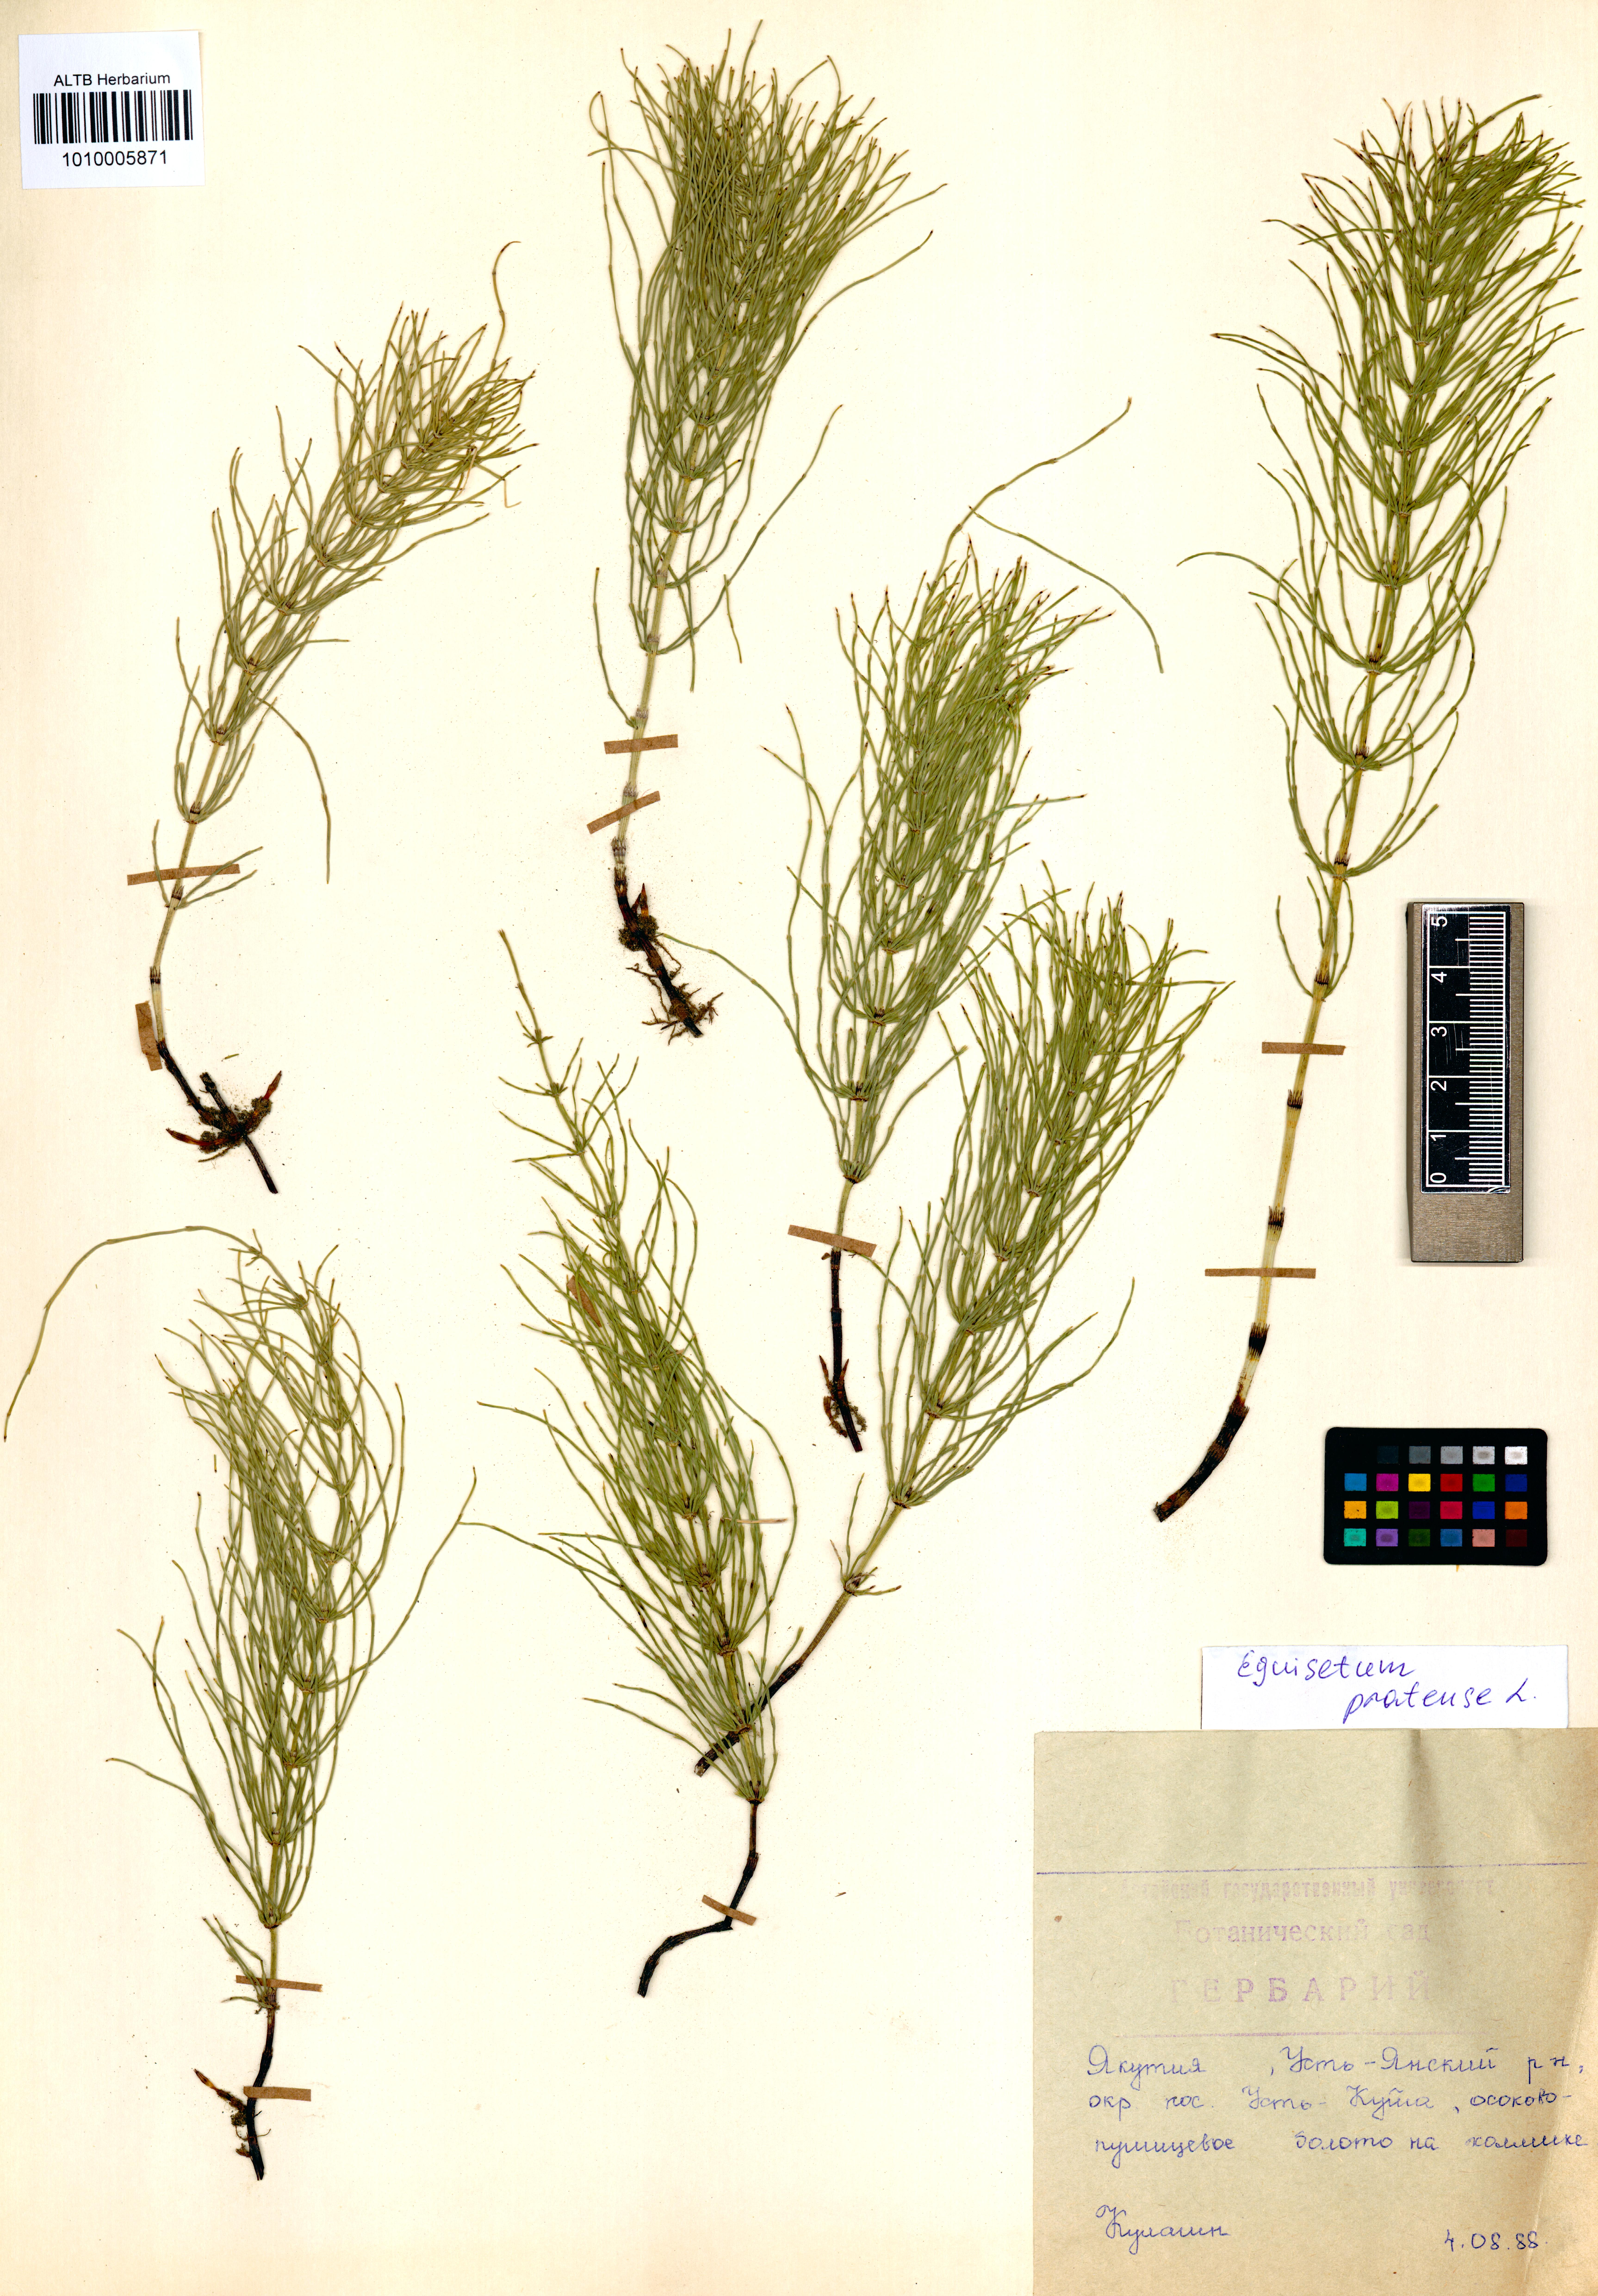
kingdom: Plantae
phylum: Tracheophyta
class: Polypodiopsida
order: Equisetales
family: Equisetaceae
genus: Equisetum
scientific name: Equisetum pratense
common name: Meadow horsetail
